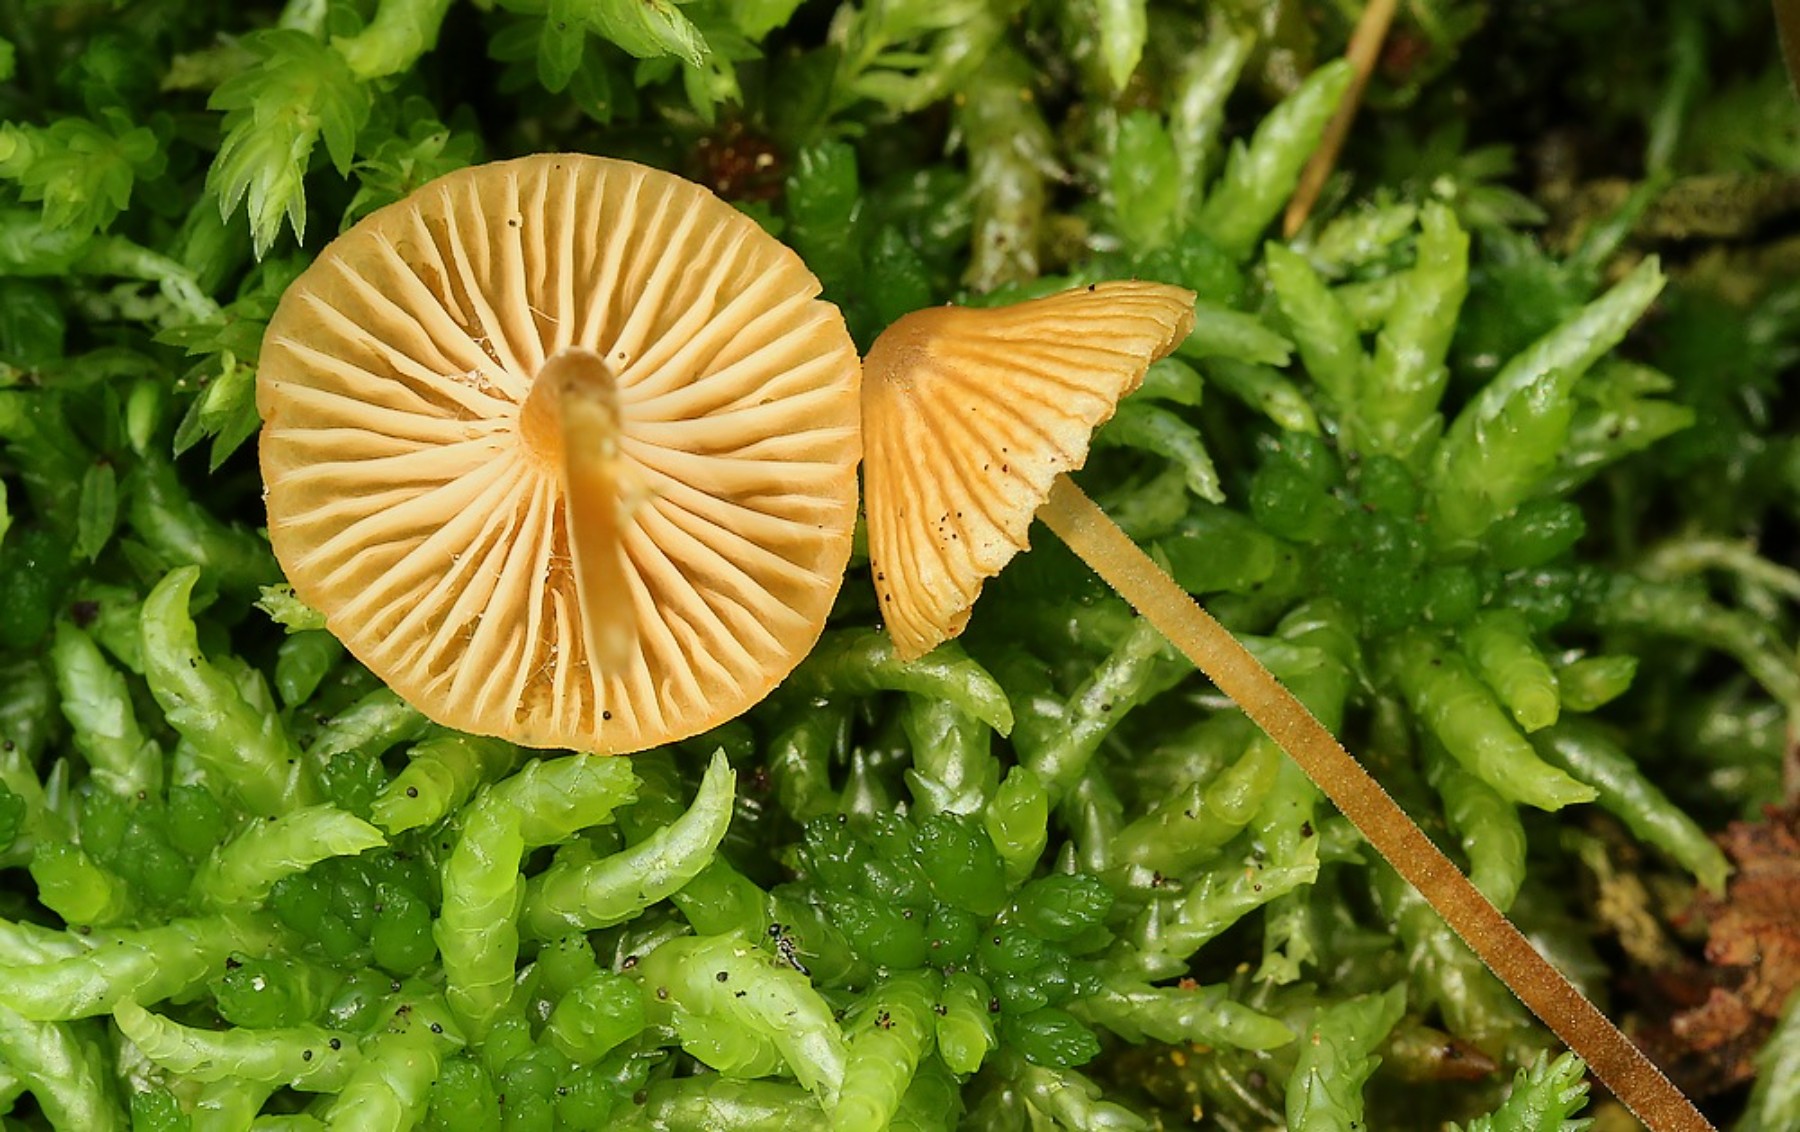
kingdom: Fungi
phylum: Basidiomycota
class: Agaricomycetes
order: Agaricales
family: Hymenogastraceae
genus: Galerina
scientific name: Galerina
